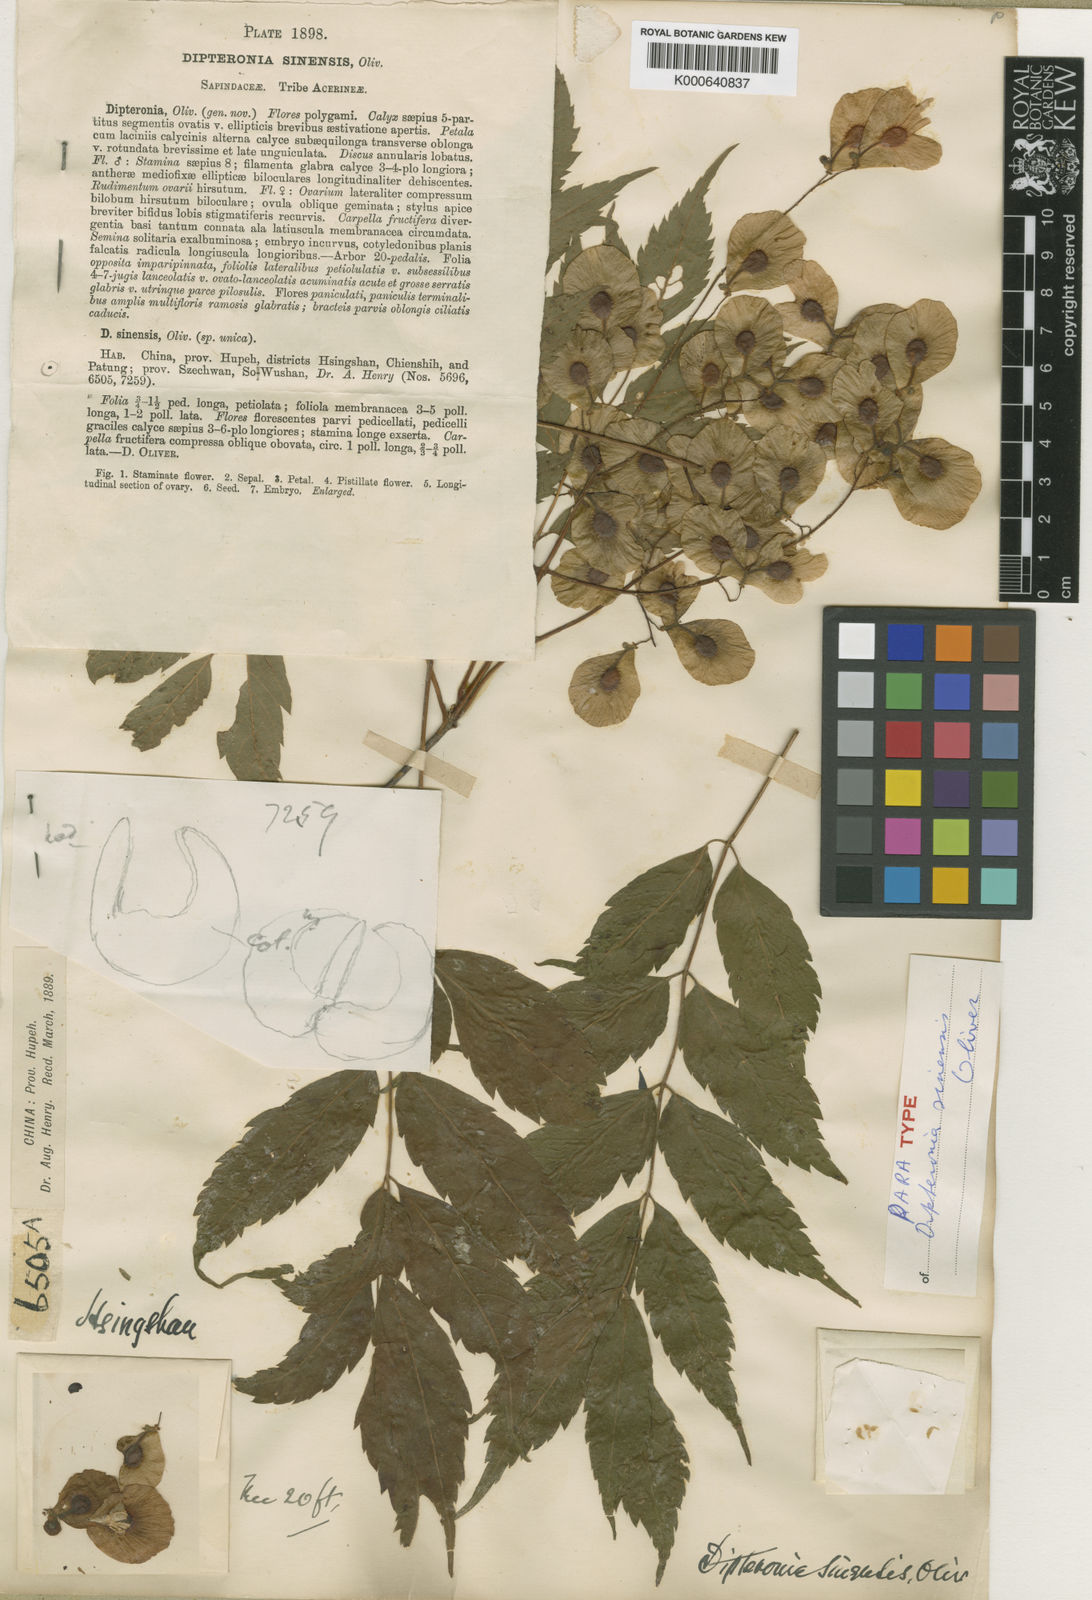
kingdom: Plantae
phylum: Tracheophyta
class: Magnoliopsida
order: Sapindales
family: Sapindaceae
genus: Dipteronia
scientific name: Dipteronia dyeriana
